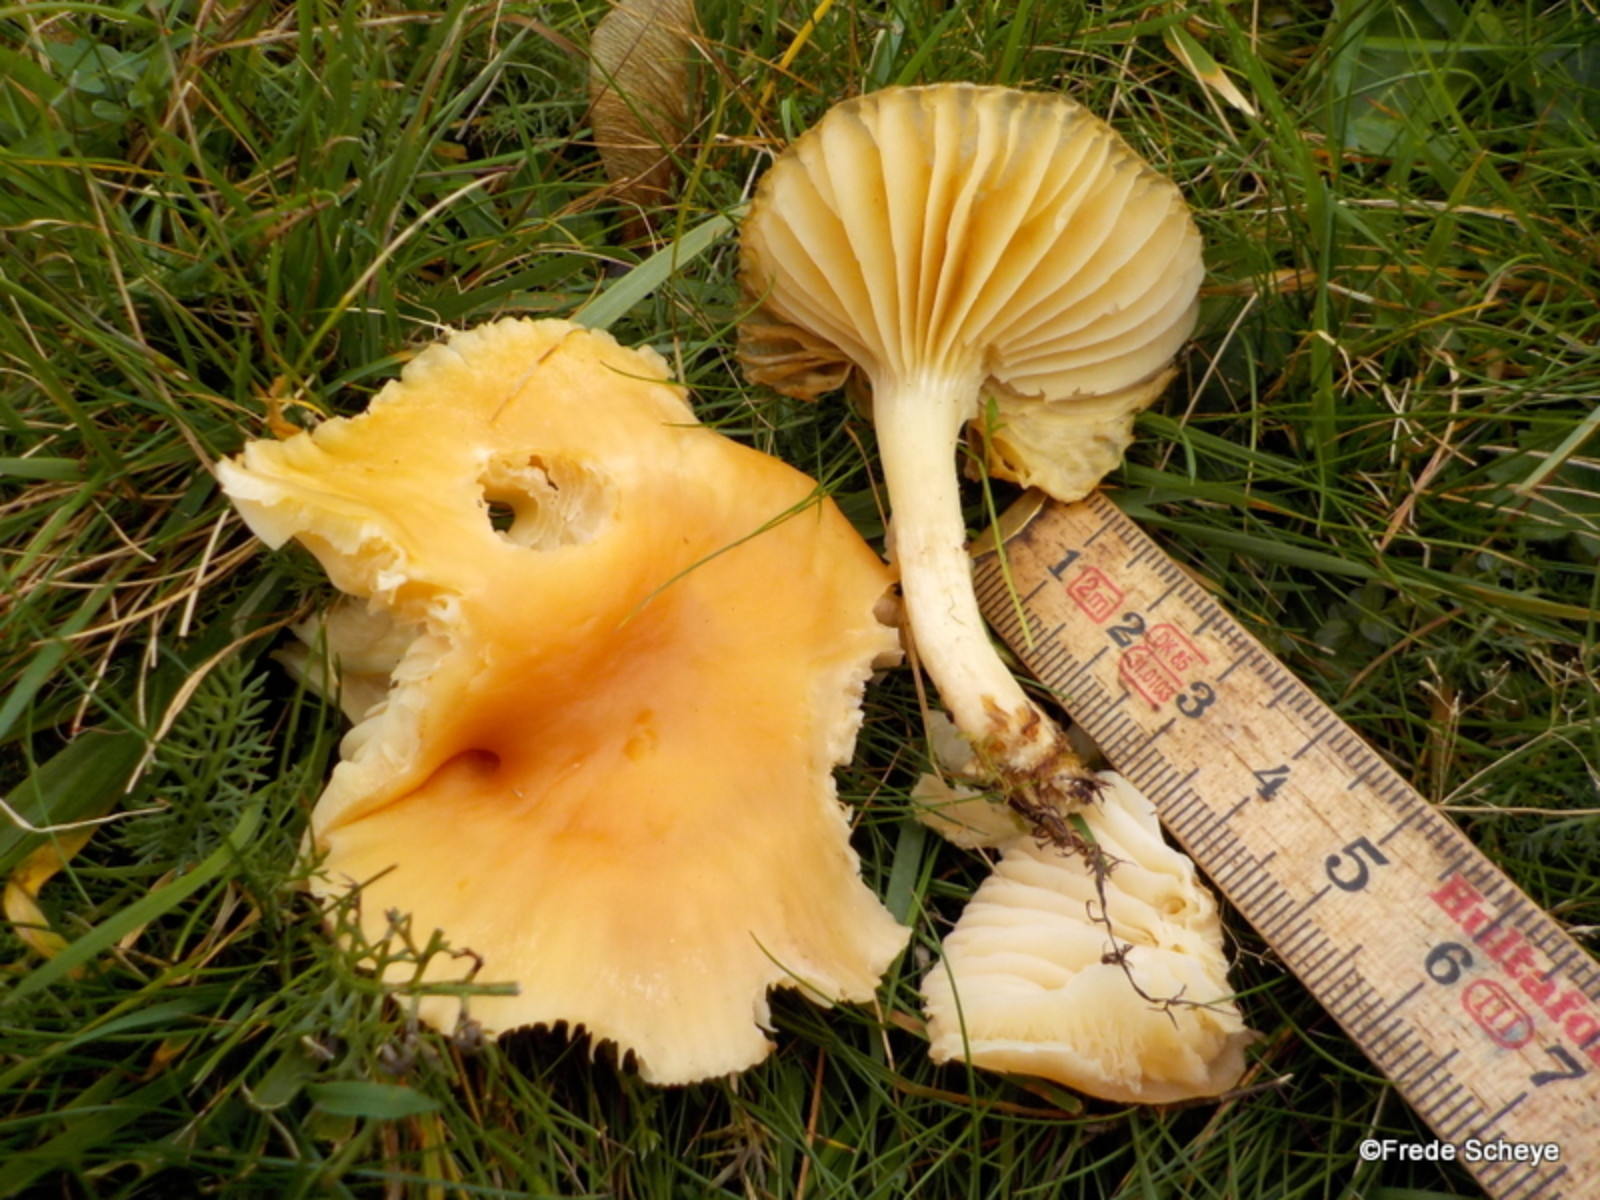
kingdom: Fungi
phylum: Basidiomycota
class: Agaricomycetes
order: Agaricales
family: Hygrophoraceae
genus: Cuphophyllus
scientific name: Cuphophyllus pratensis
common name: eng-vokshat
